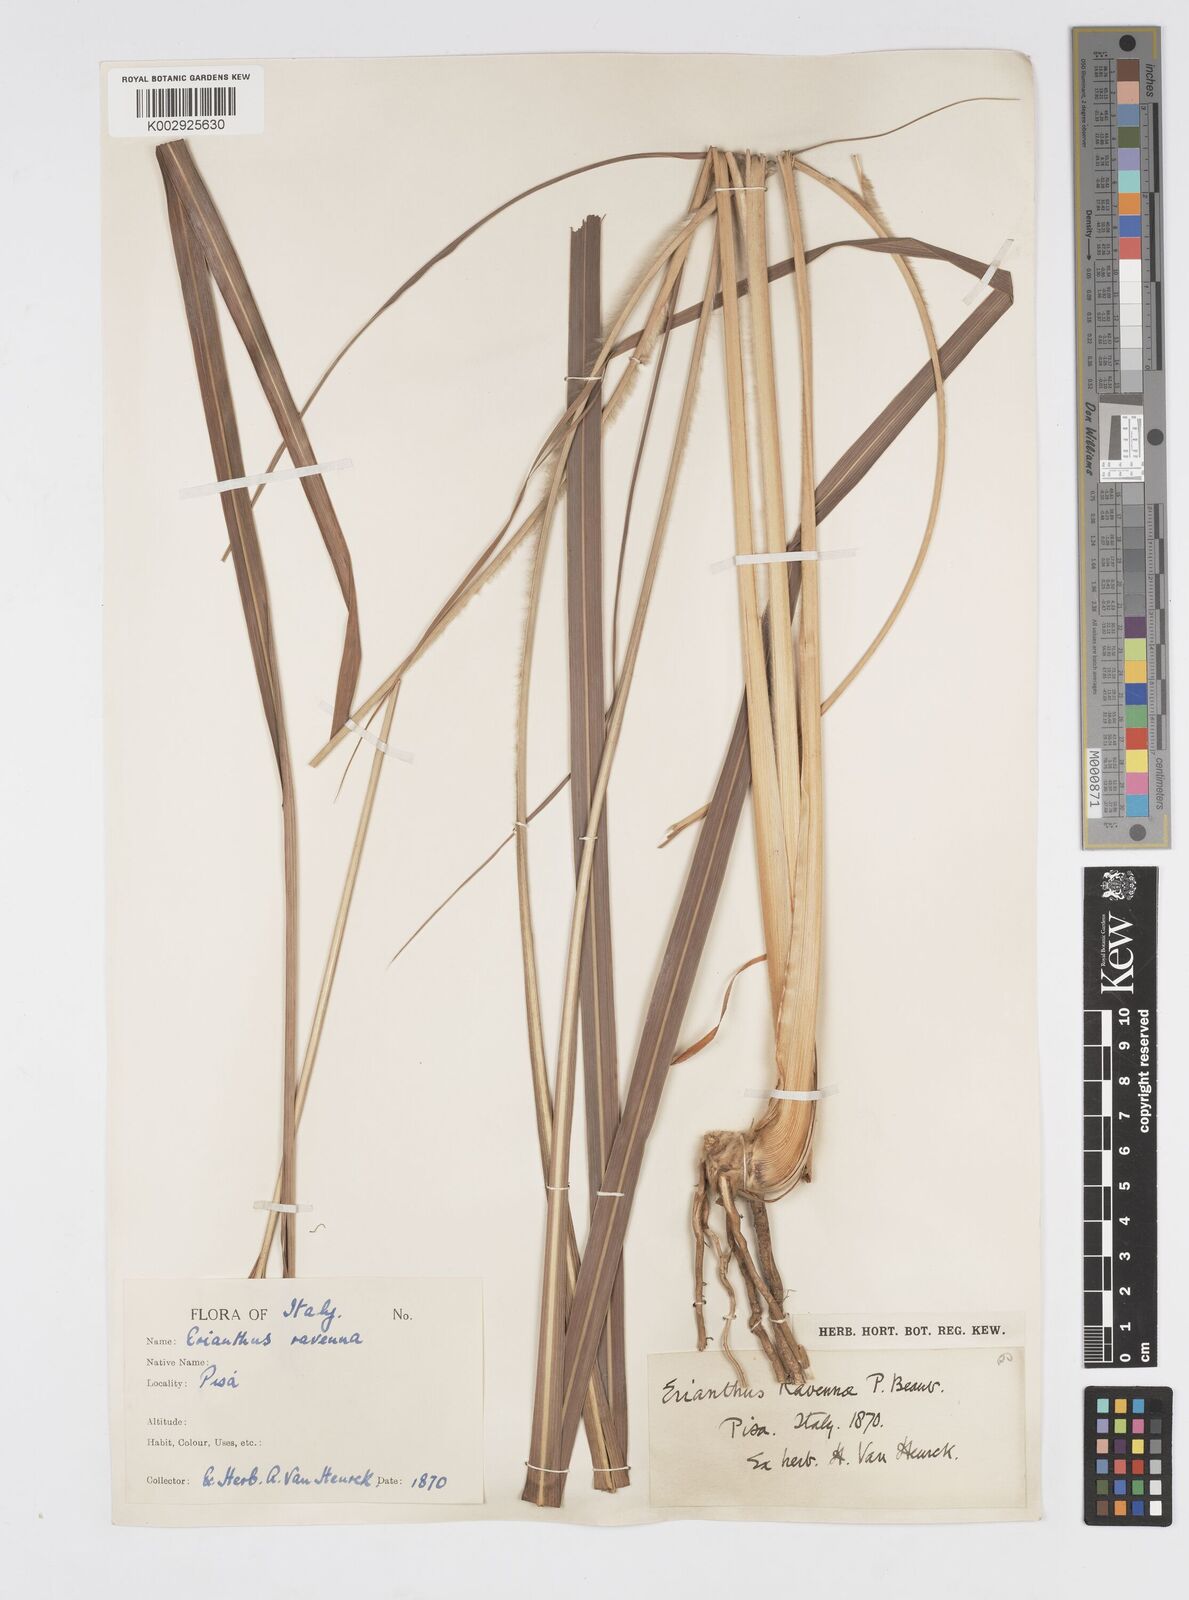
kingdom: Plantae
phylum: Tracheophyta
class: Liliopsida
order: Poales
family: Poaceae
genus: Tripidium
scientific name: Tripidium ravennae
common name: Ravenna grass
